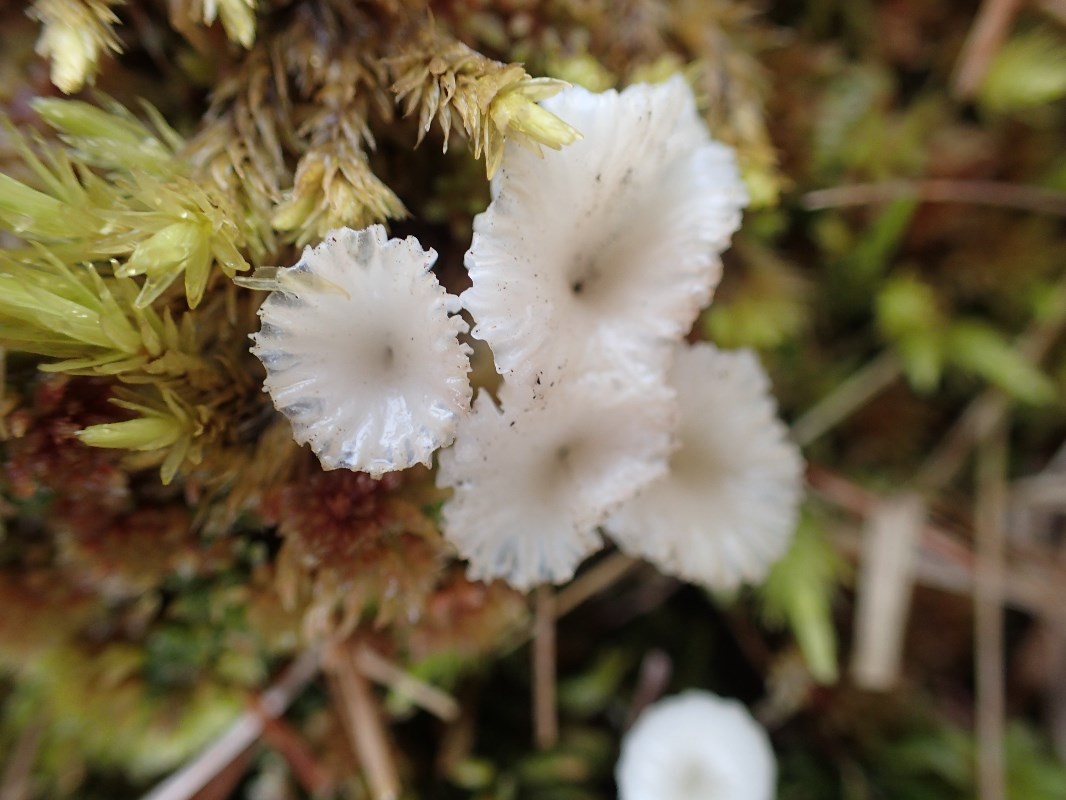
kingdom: Fungi
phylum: Basidiomycota
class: Agaricomycetes
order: Agaricales
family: Hygrophoraceae
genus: Lichenomphalia
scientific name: Lichenomphalia umbellifera
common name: tørve-lavhat
